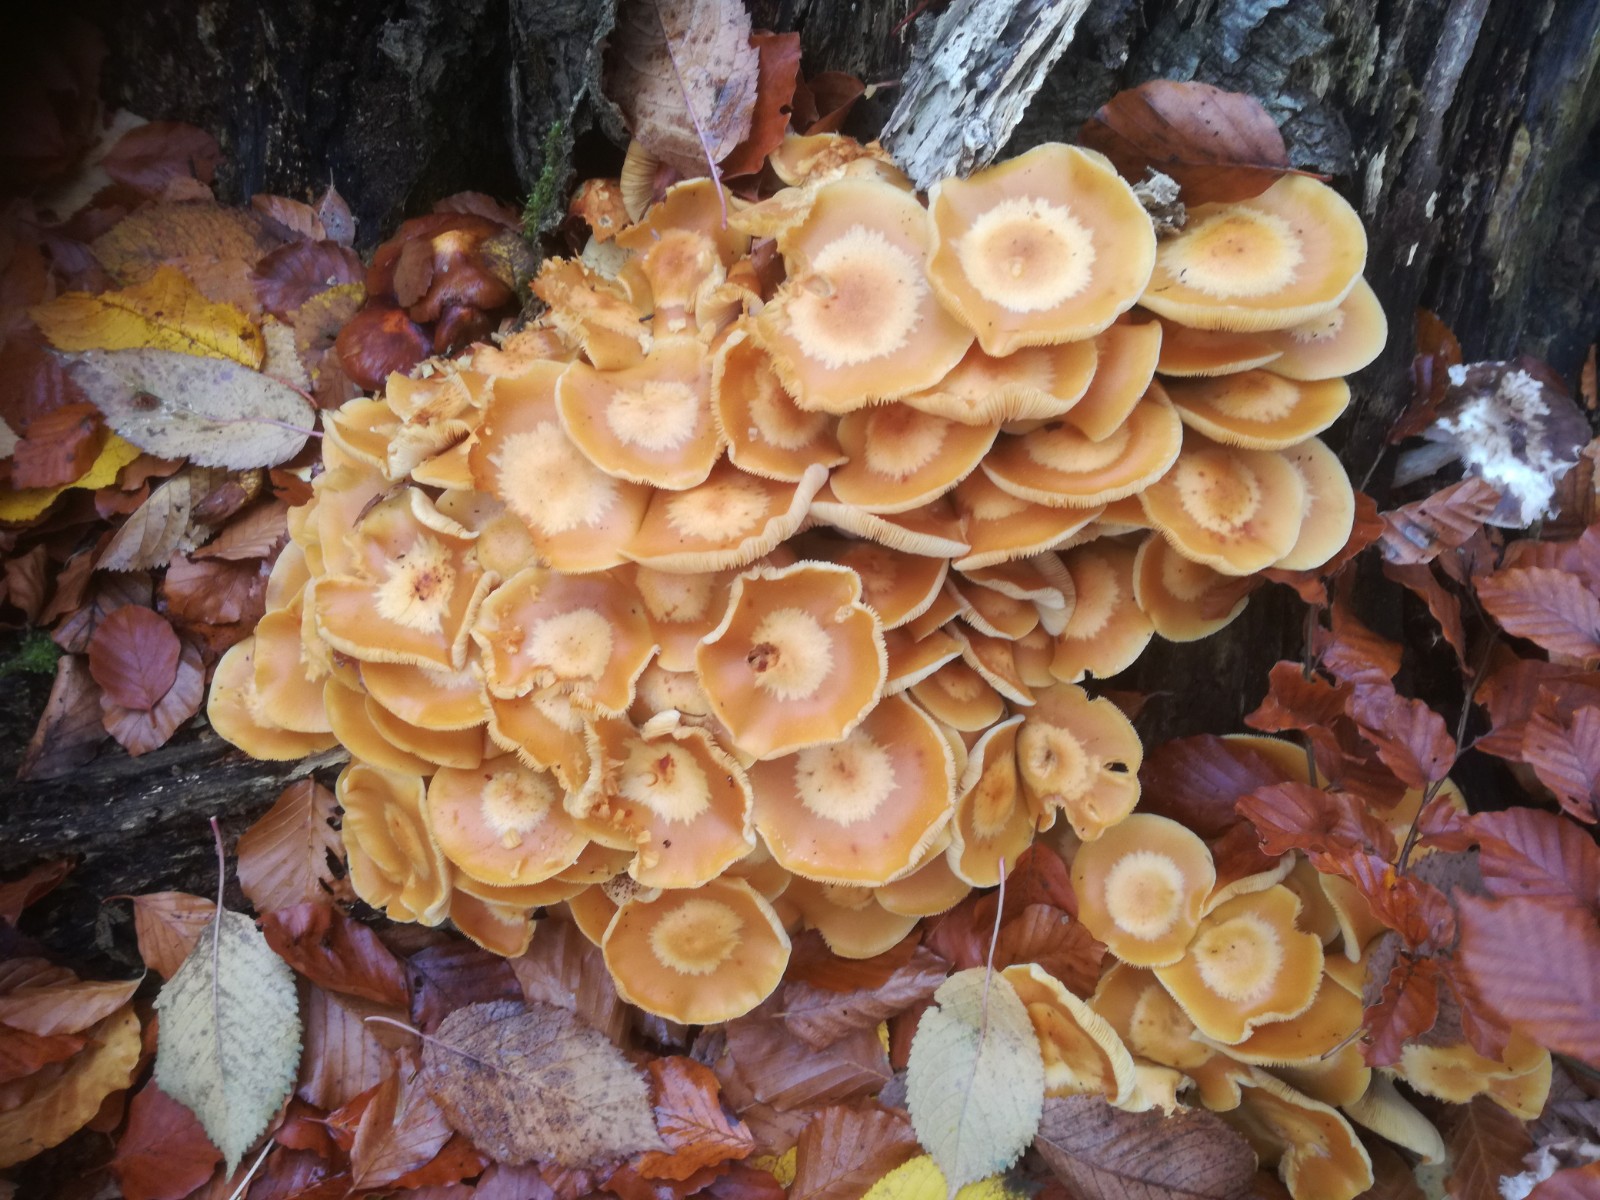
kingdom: Fungi
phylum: Basidiomycota
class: Agaricomycetes
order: Agaricales
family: Strophariaceae
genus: Kuehneromyces
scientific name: Kuehneromyces mutabilis
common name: foranderlig skælhat
